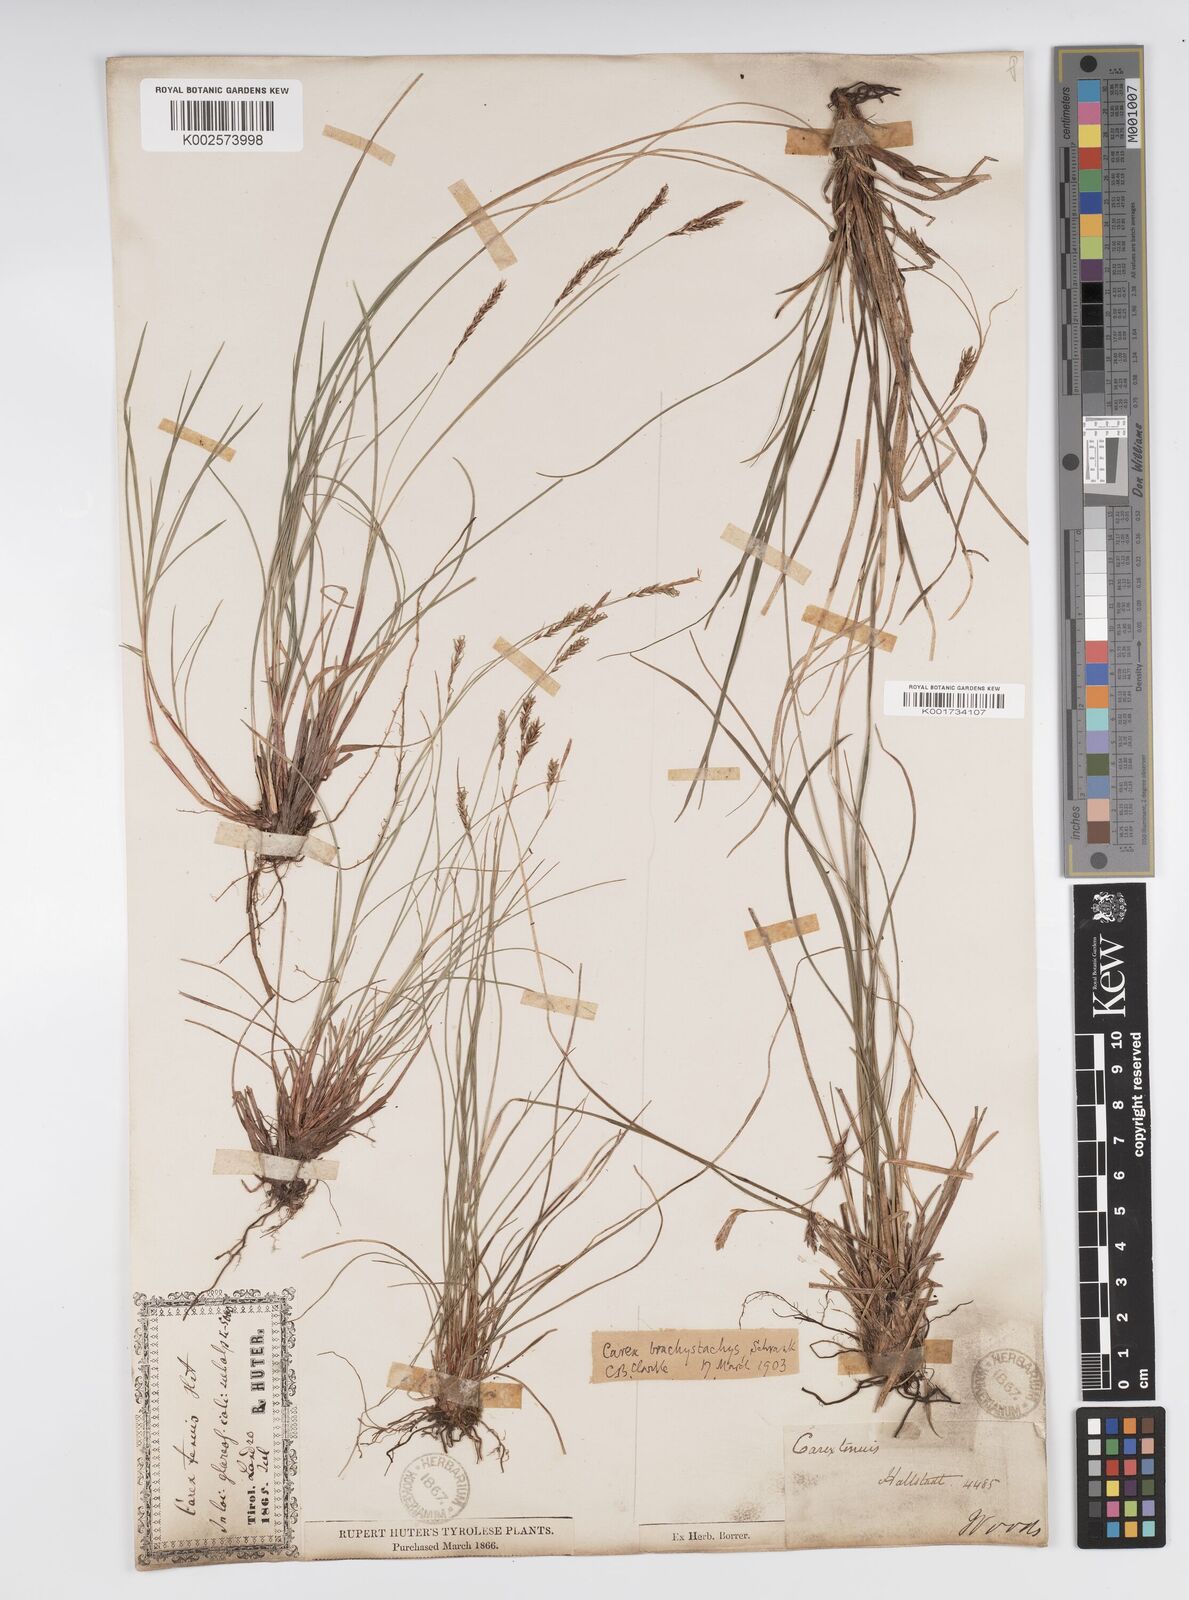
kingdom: Plantae
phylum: Tracheophyta
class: Liliopsida
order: Poales
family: Cyperaceae
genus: Carex
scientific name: Carex brachystachys
